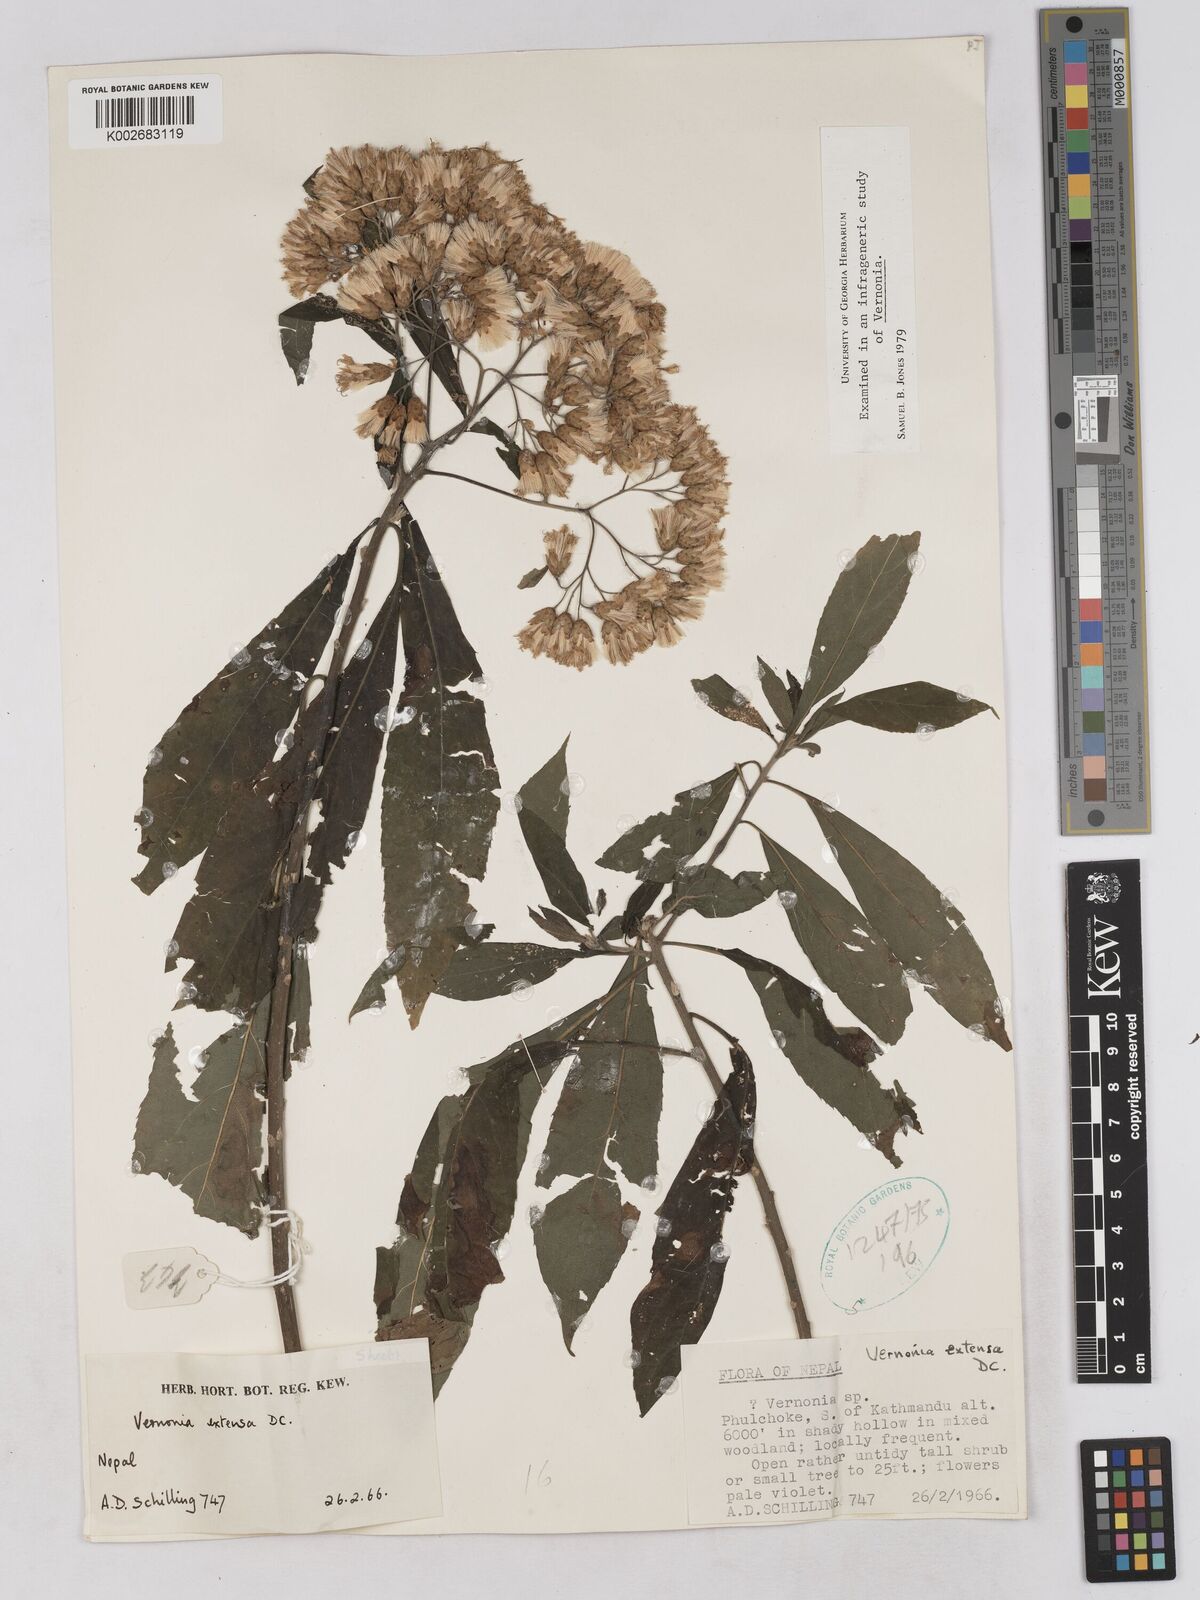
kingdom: Plantae
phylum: Tracheophyta
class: Magnoliopsida
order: Asterales
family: Asteraceae
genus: Gymnanthemum
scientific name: Gymnanthemum extensum
